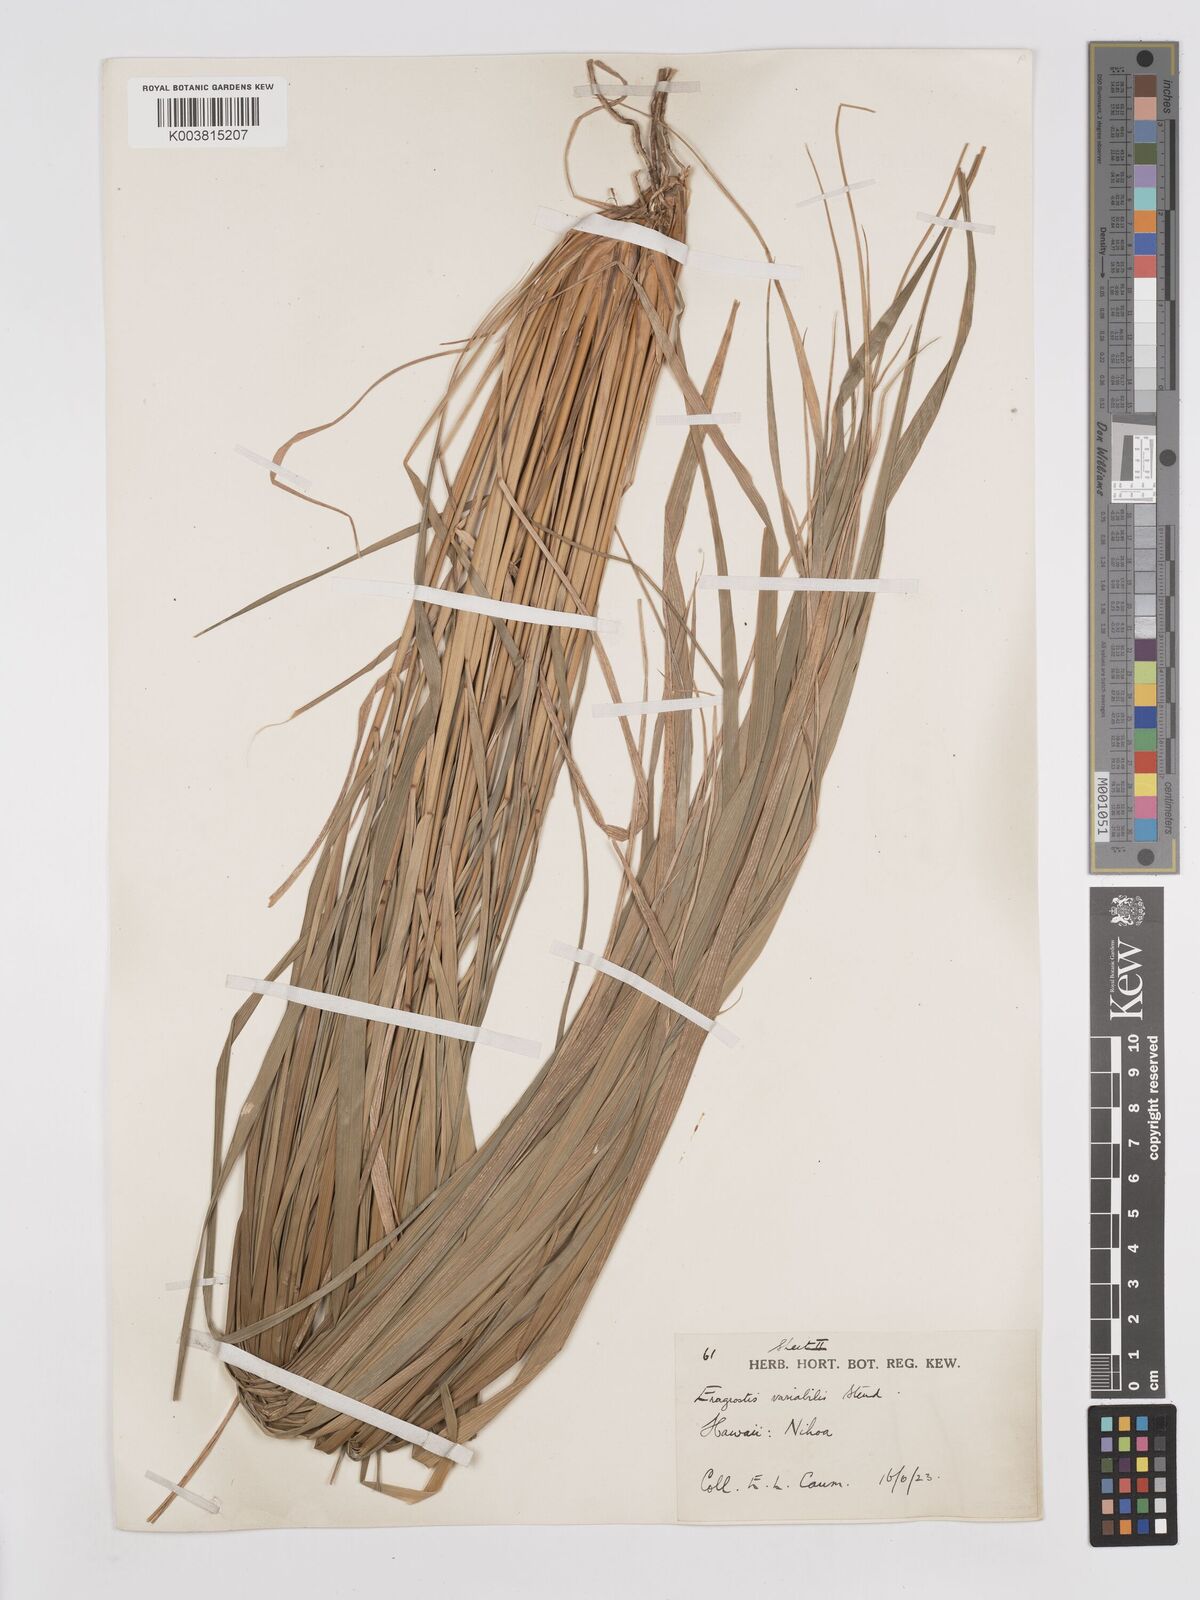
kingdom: Plantae
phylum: Tracheophyta
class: Liliopsida
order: Poales
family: Poaceae
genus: Eragrostis
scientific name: Eragrostis variabilis
